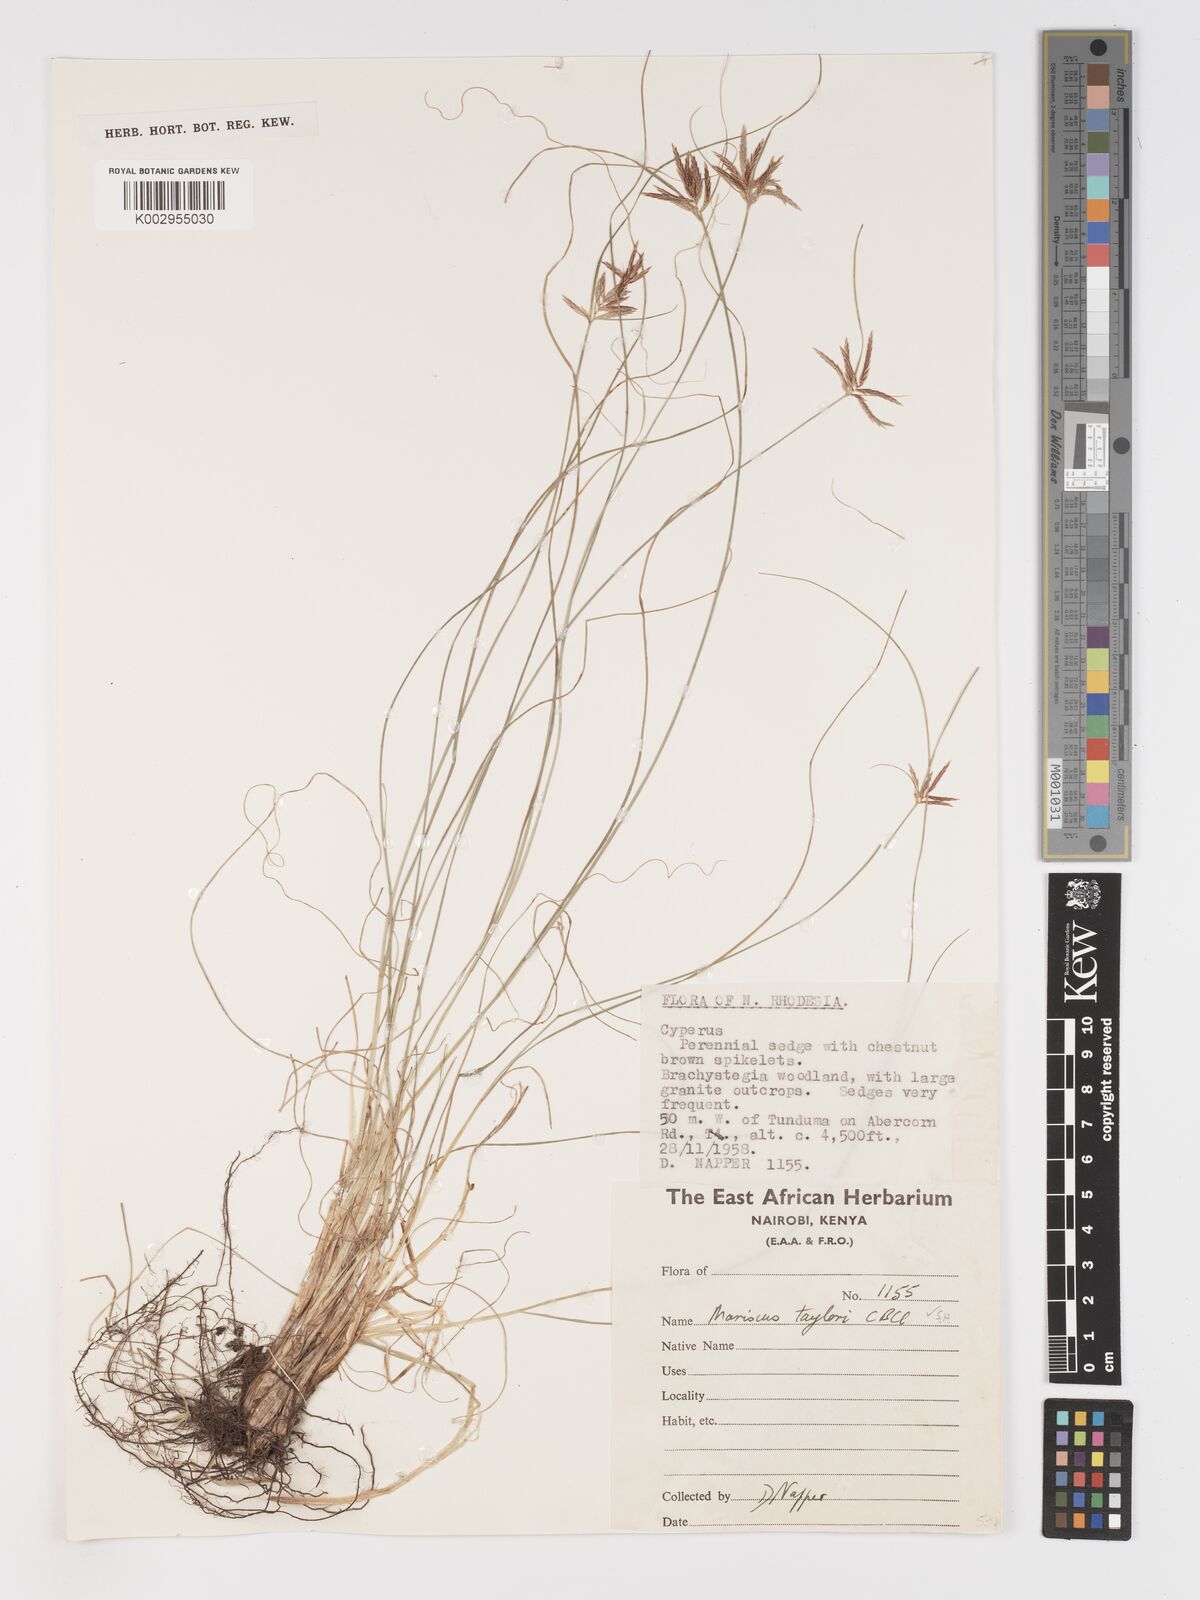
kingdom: Plantae
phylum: Tracheophyta
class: Liliopsida
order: Poales
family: Cyperaceae
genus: Cyperus
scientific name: Cyperus rotundus
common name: Nutgrass
